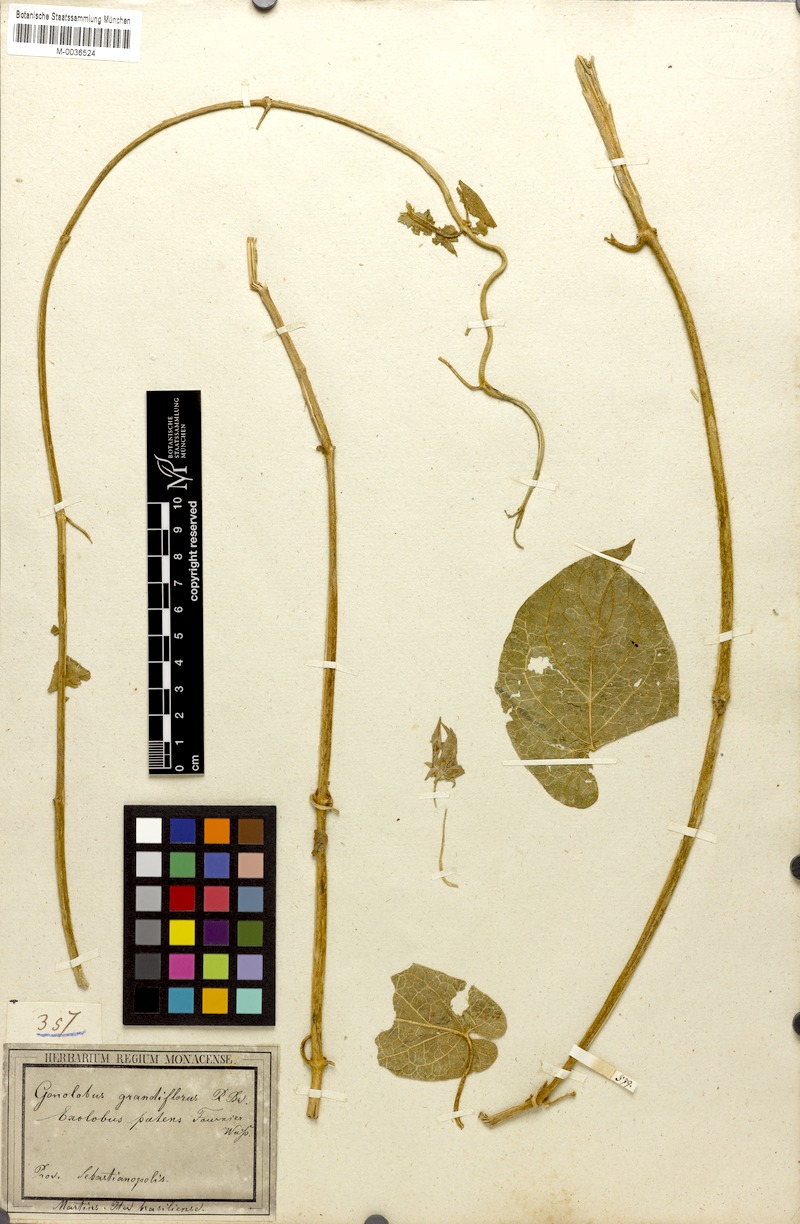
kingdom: Plantae
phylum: Tracheophyta
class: Magnoliopsida
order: Gentianales
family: Apocynaceae
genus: Gonolobus
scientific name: Gonolobus rostratus
